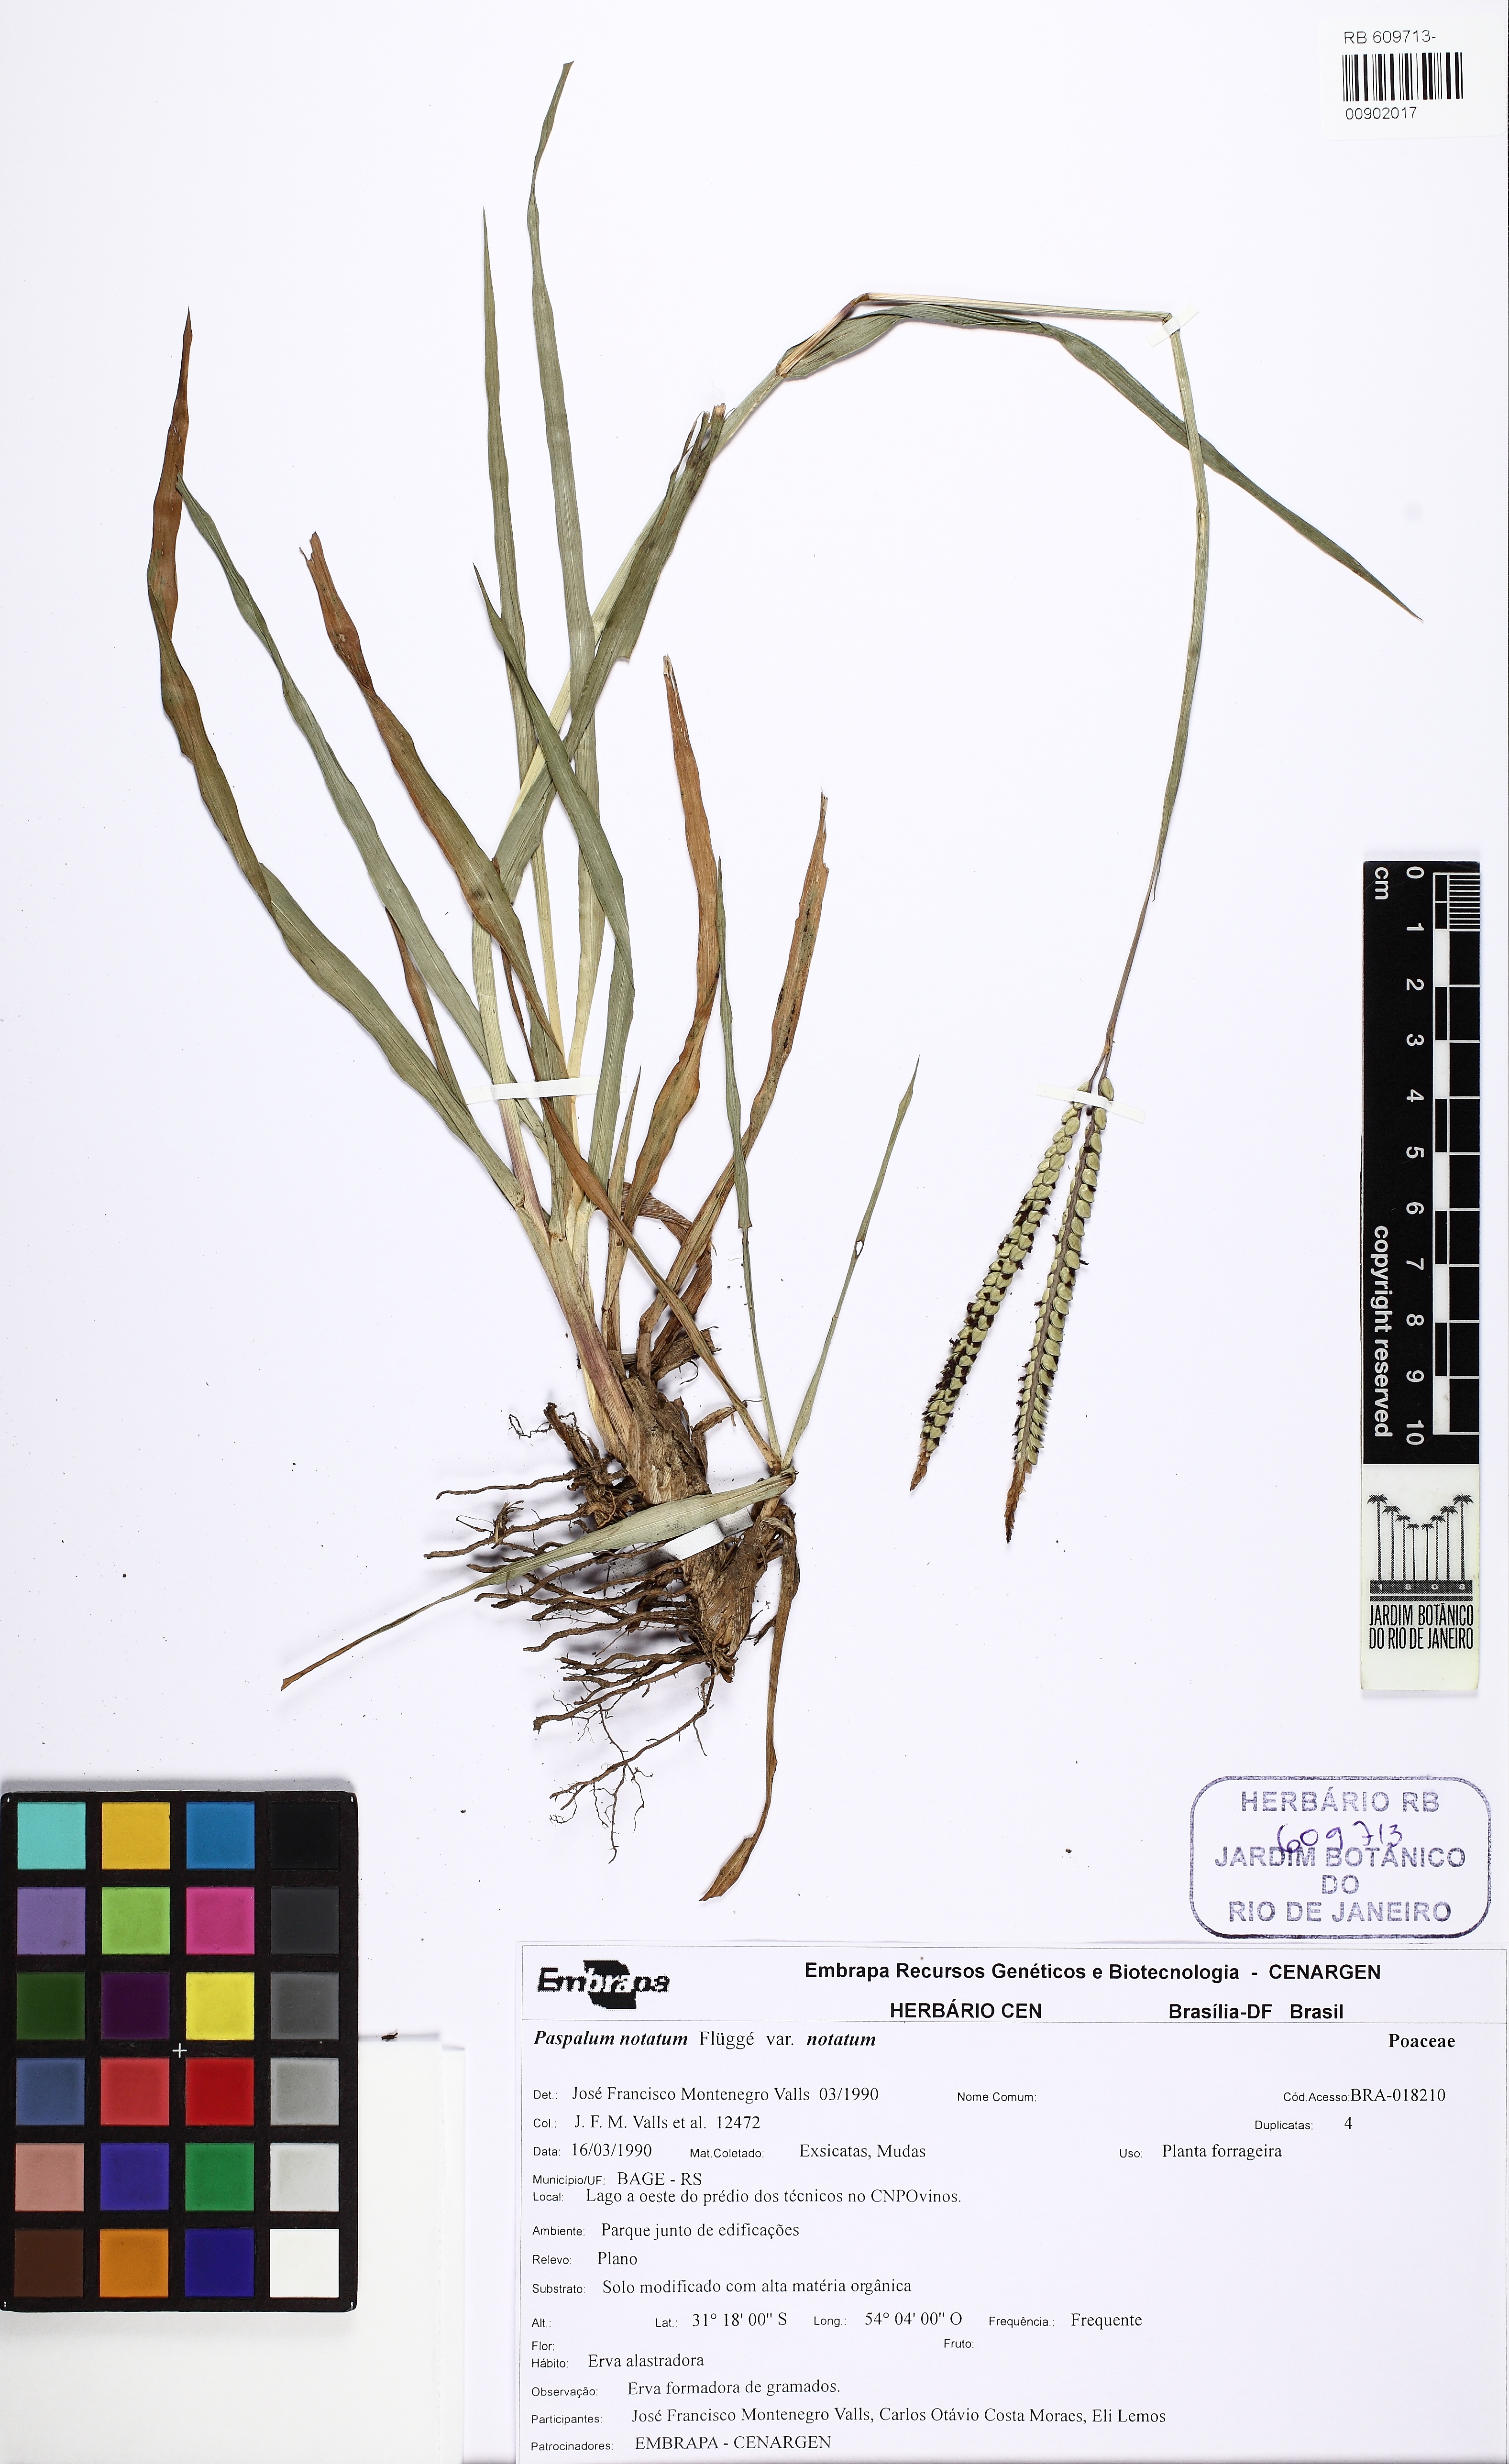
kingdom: Plantae
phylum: Tracheophyta
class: Liliopsida
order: Poales
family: Poaceae
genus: Paspalum
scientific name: Paspalum notatum
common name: Bahiagrass
